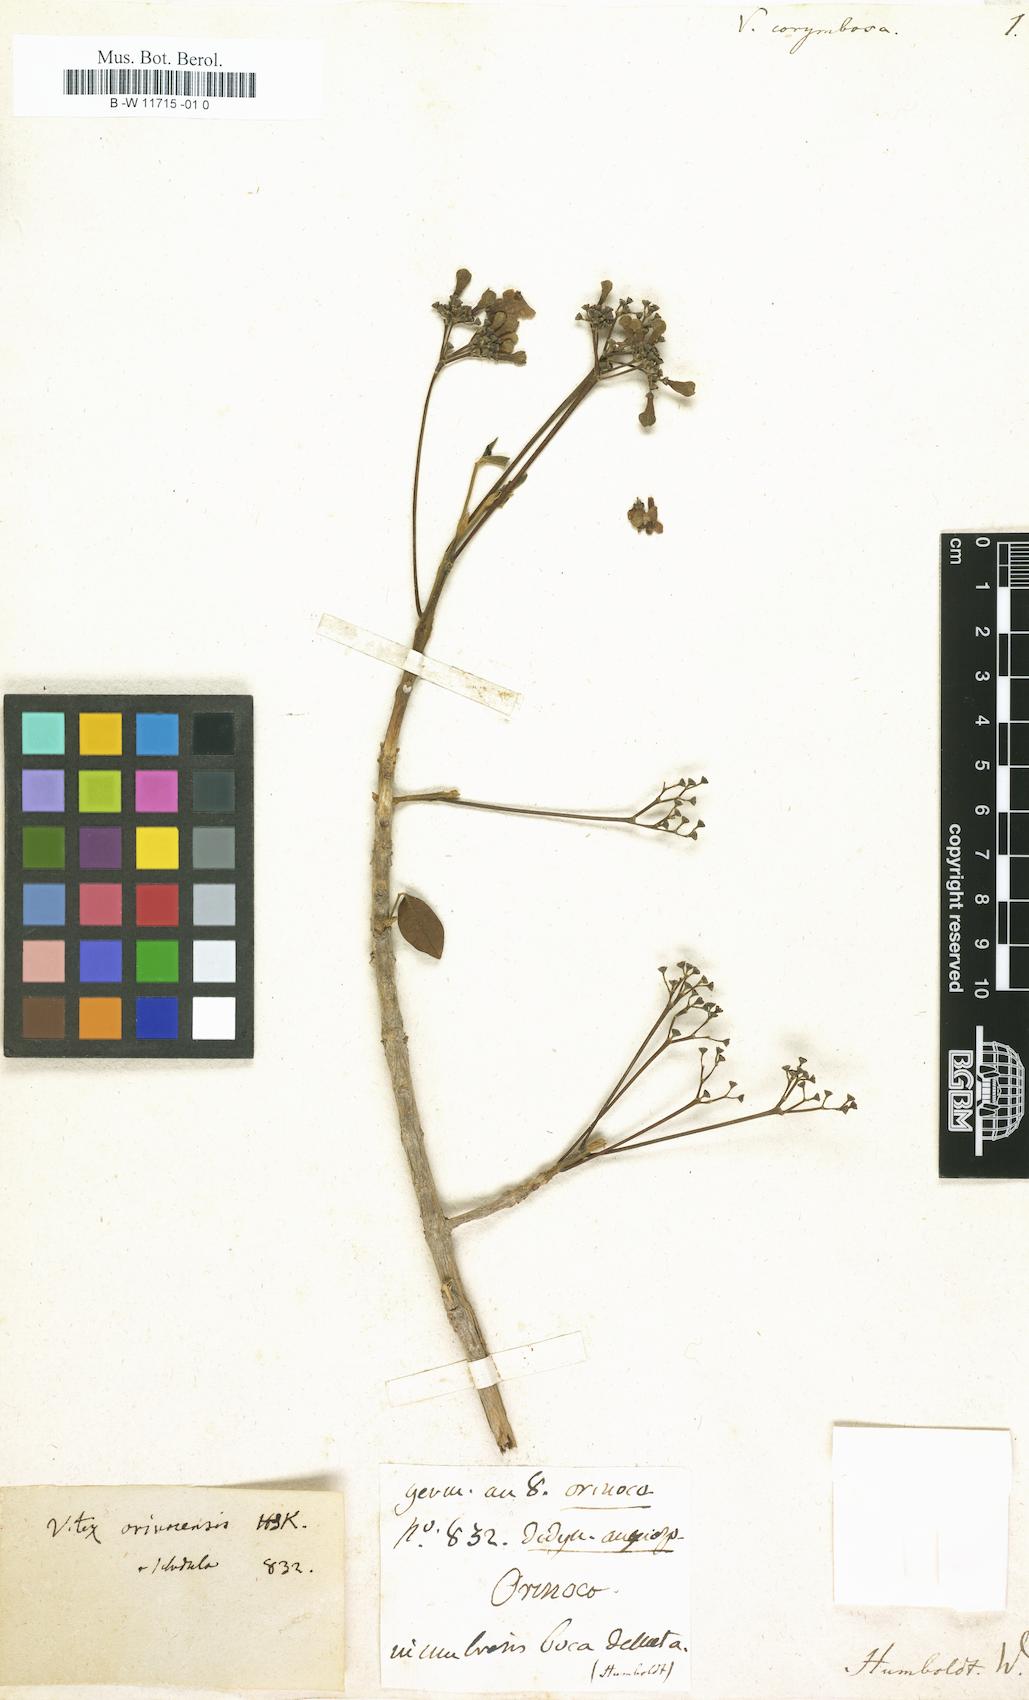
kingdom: Plantae
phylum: Tracheophyta
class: Magnoliopsida
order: Lamiales
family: Lamiaceae
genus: Vitex
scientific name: Vitex
